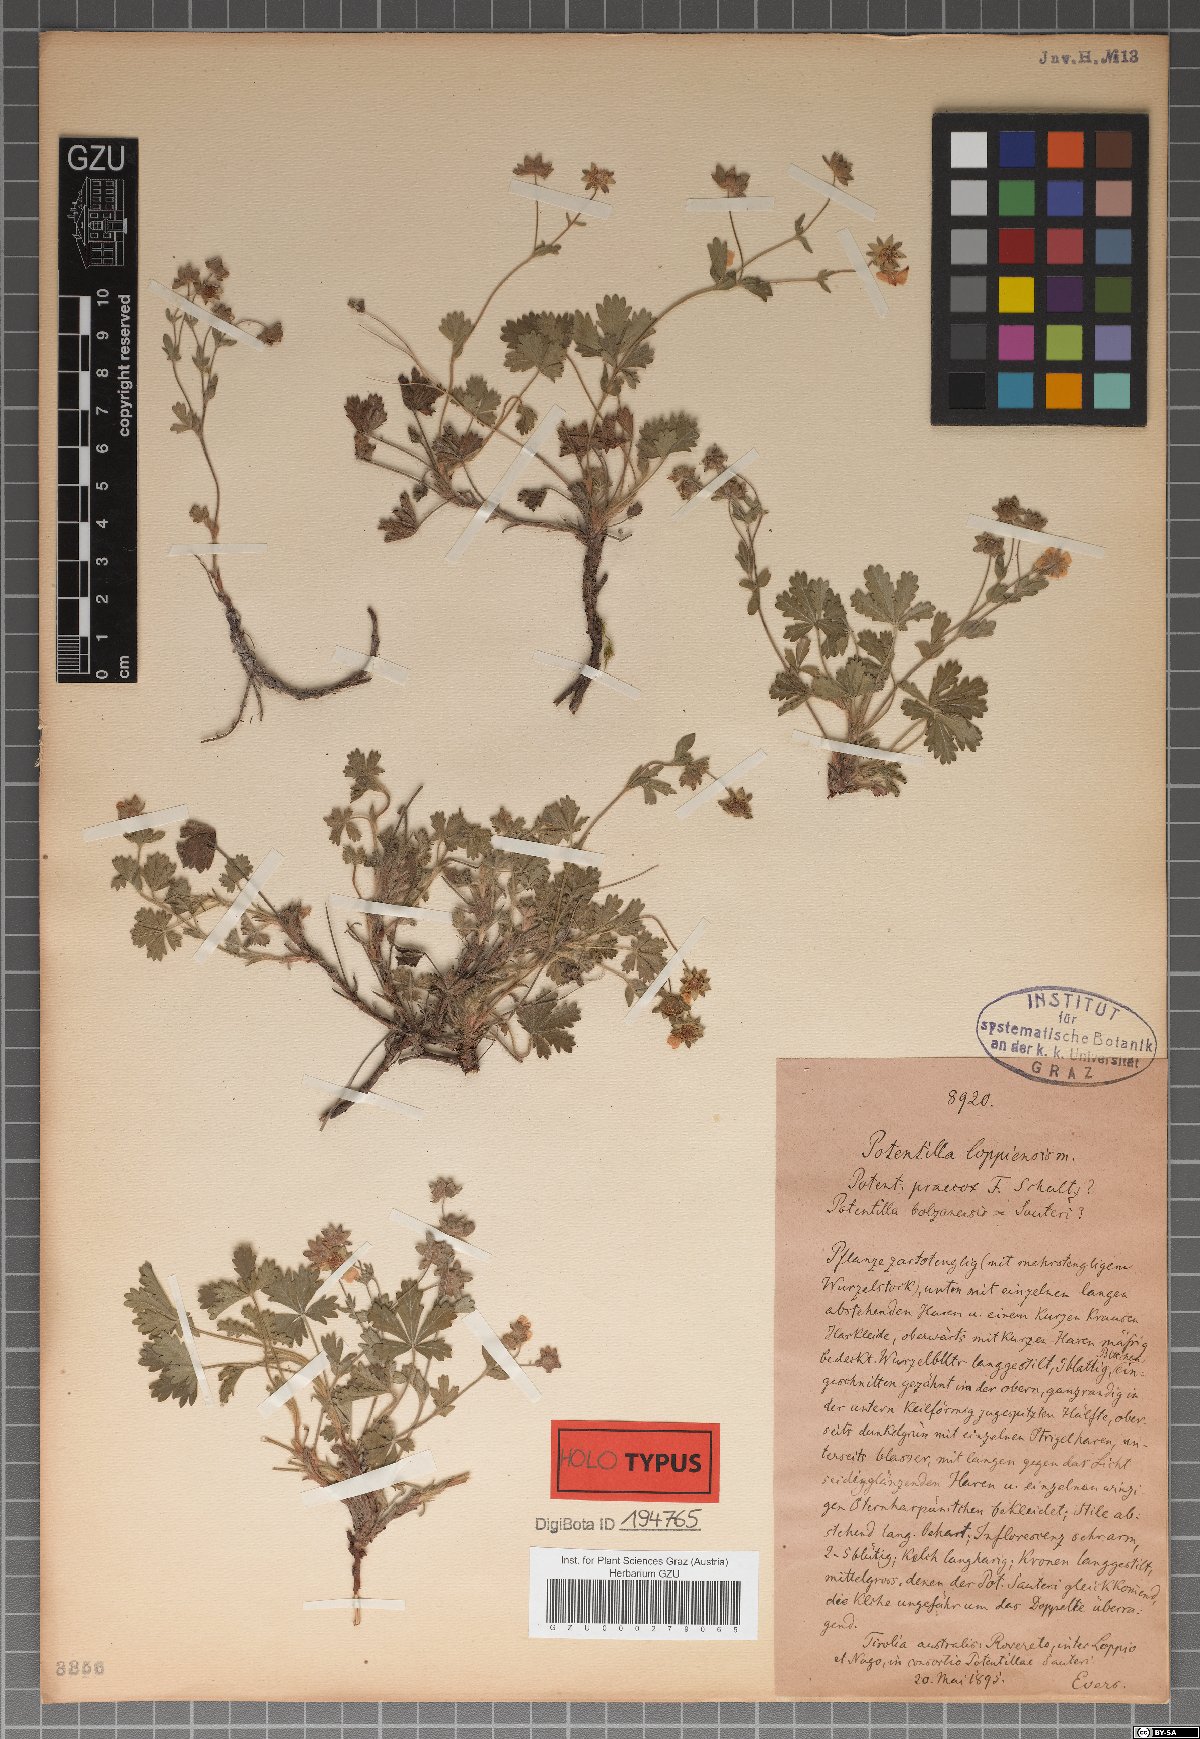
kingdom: Plantae
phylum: Tracheophyta
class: Magnoliopsida
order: Rosales
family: Rosaceae
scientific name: Rosaceae
